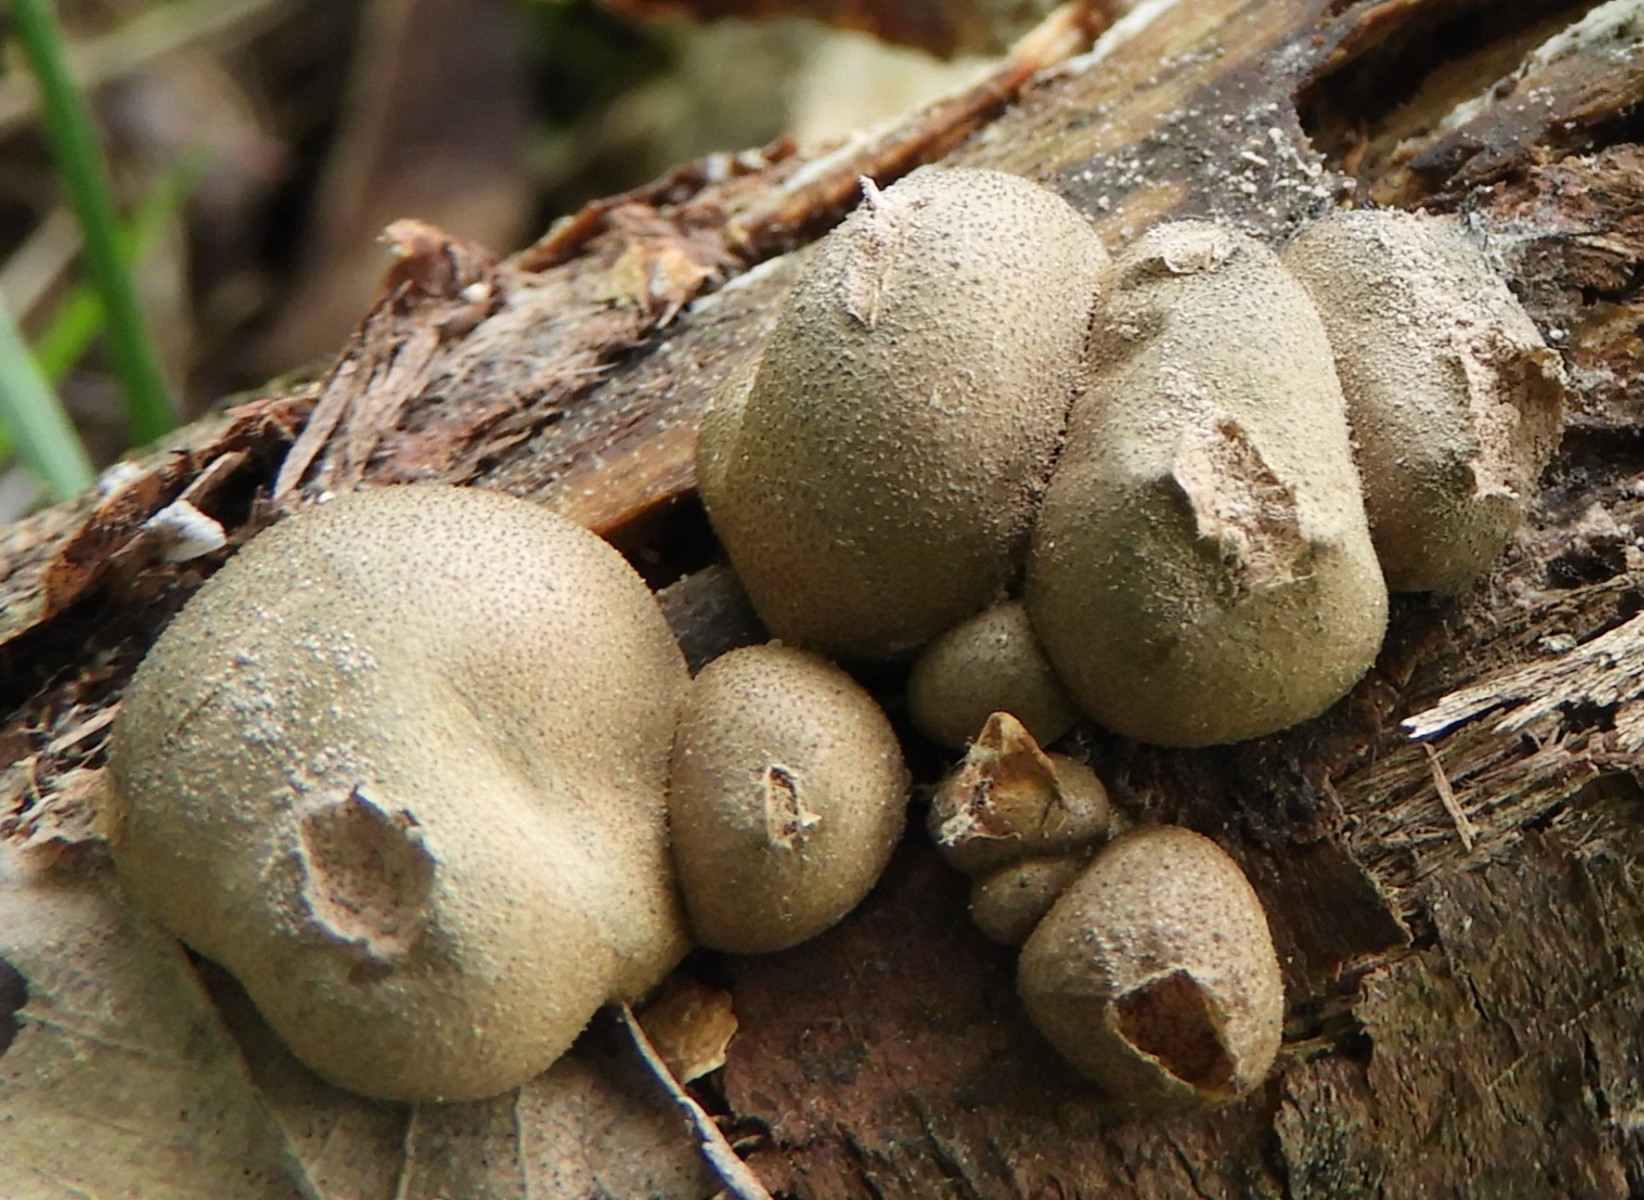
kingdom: Protozoa
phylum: Mycetozoa
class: Myxomycetes
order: Cribrariales
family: Tubiferaceae
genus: Lycogala
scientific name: Lycogala epidendrum
